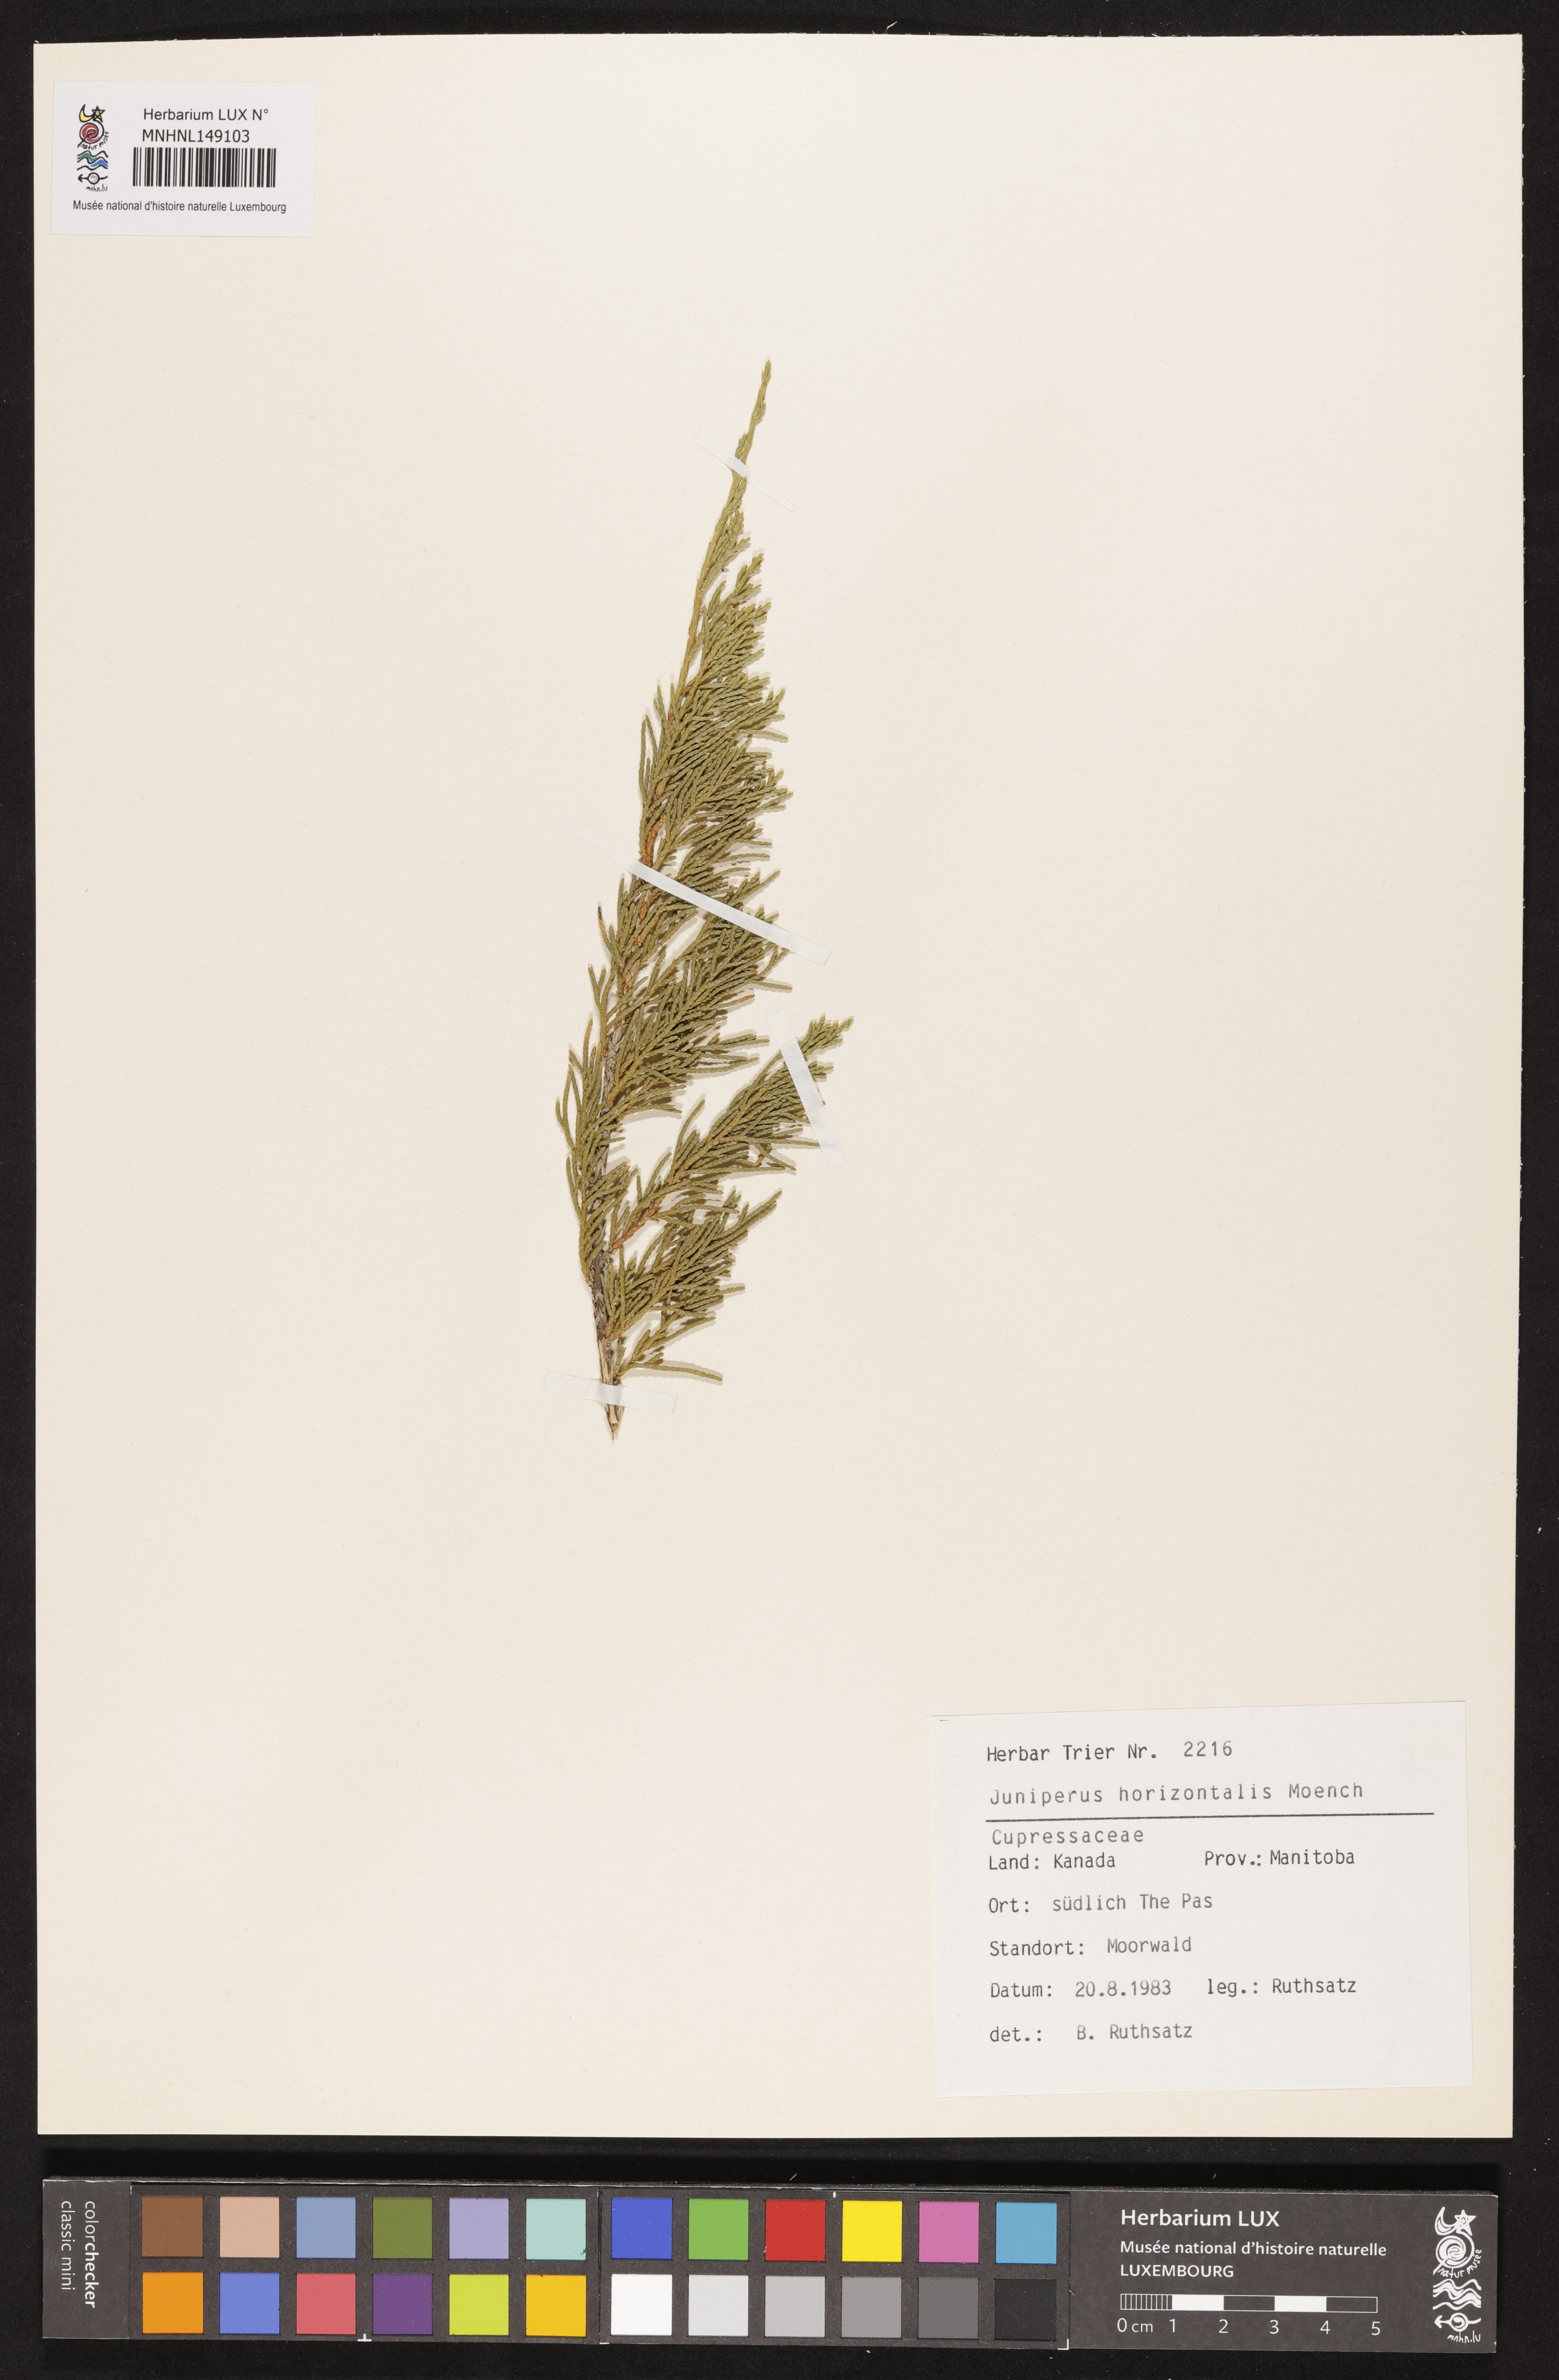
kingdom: Plantae
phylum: Tracheophyta
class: Pinopsida
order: Pinales
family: Cupressaceae
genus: Juniperus
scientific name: Juniperus horizontalis
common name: Creeping juniper
